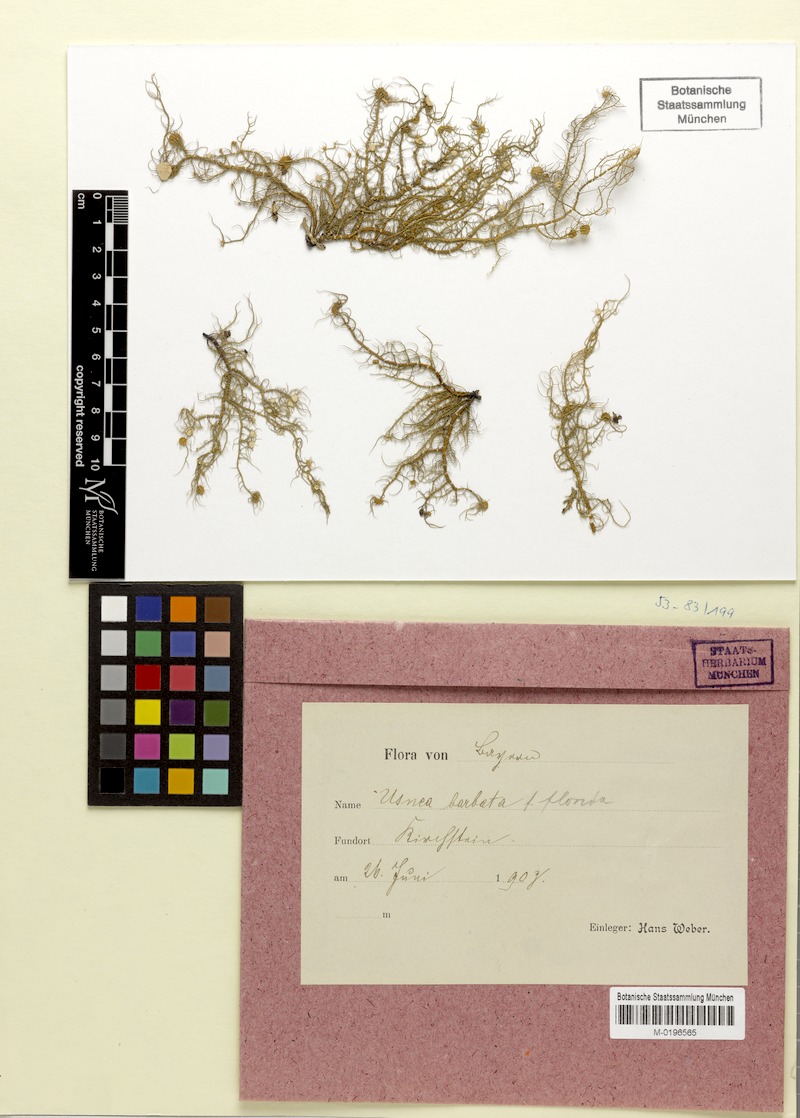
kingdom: Fungi
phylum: Ascomycota
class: Lecanoromycetes
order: Lecanorales
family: Parmeliaceae
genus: Usnea
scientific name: Usnea florida
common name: Witches' whiskers lichen
